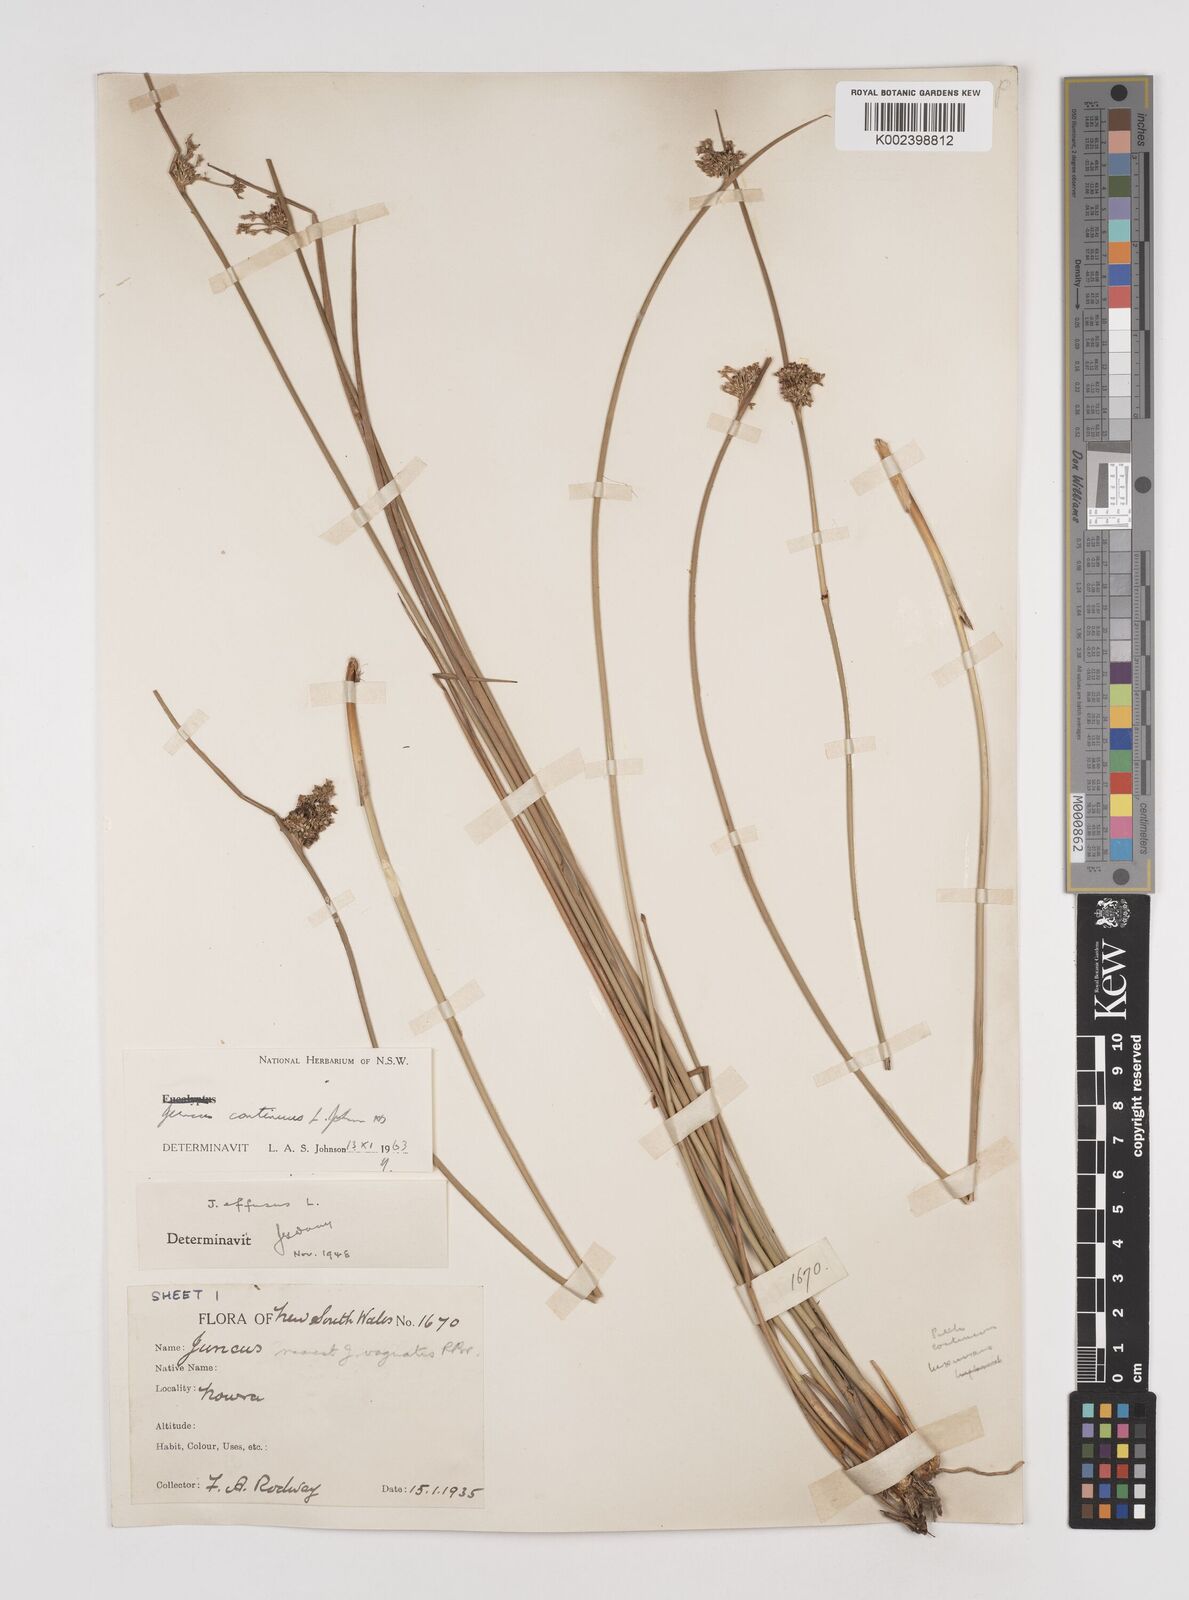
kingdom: Plantae
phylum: Tracheophyta
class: Liliopsida
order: Poales
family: Juncaceae
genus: Juncus
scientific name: Juncus continuus
